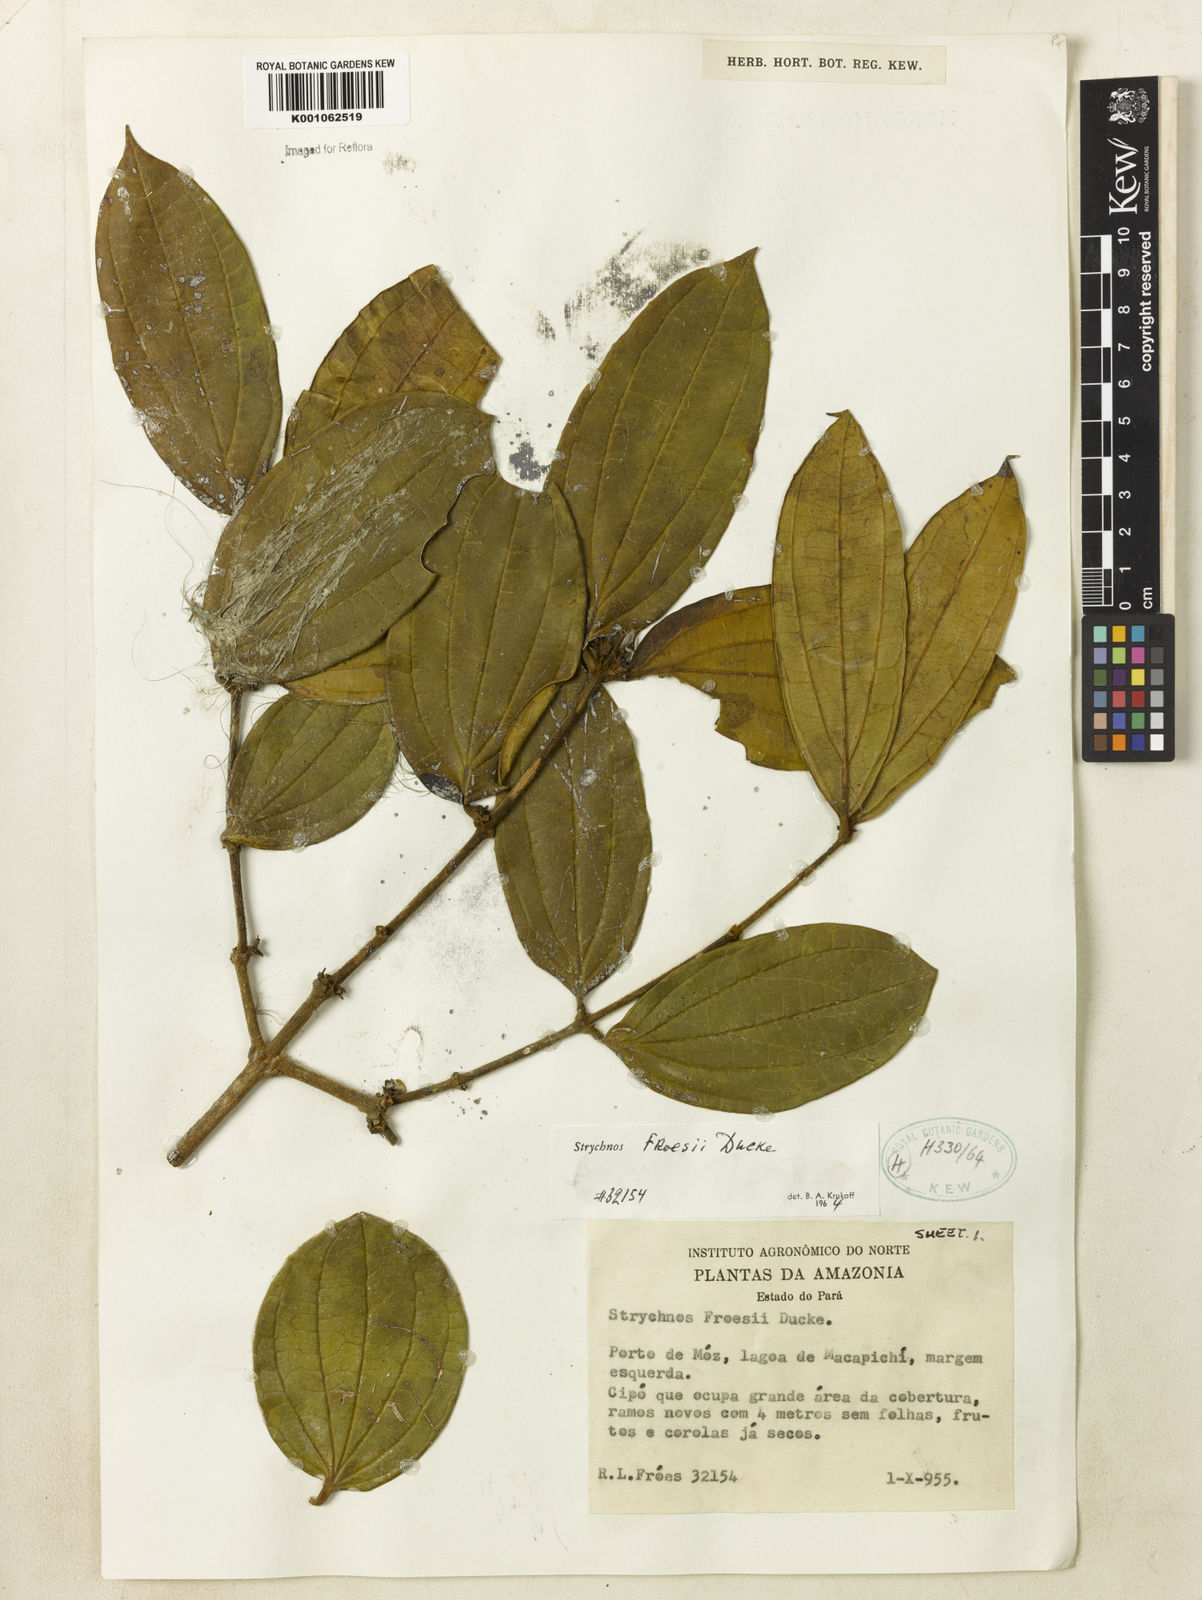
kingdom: Plantae
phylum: Tracheophyta
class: Magnoliopsida
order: Gentianales
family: Loganiaceae
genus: Strychnos
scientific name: Strychnos froesii
